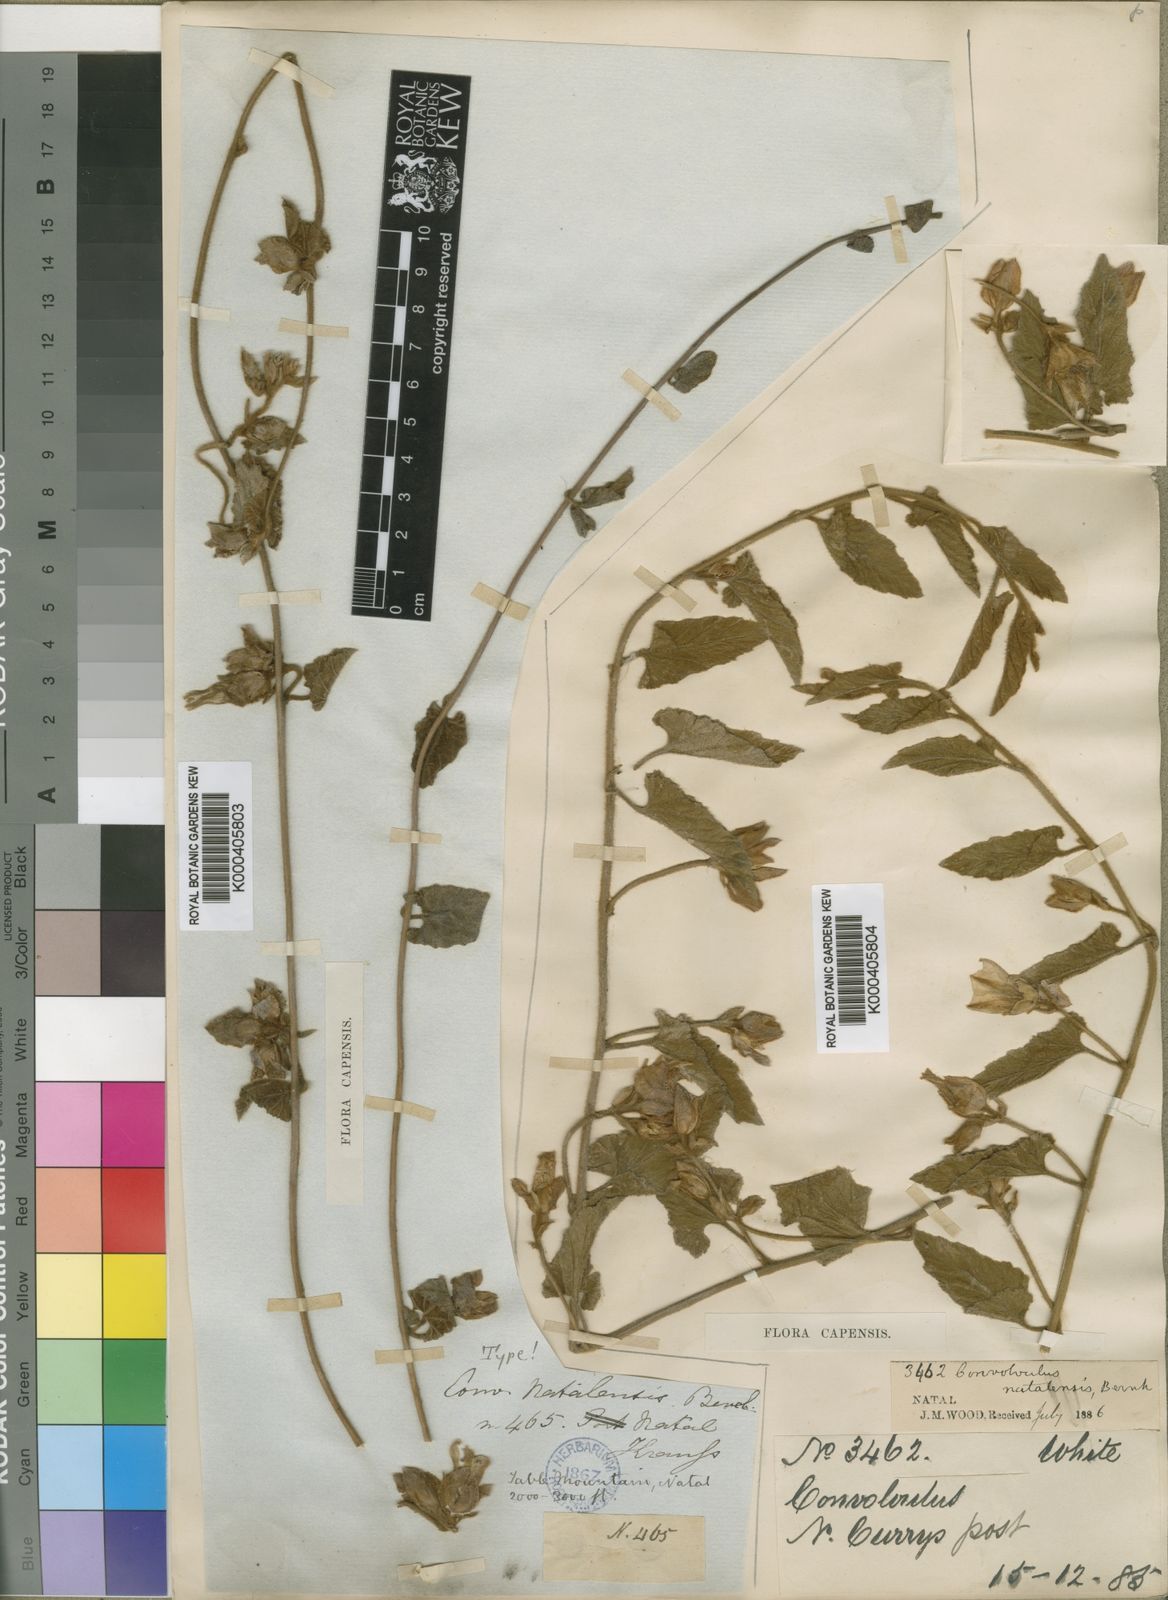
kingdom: Plantae
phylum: Tracheophyta
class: Magnoliopsida
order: Solanales
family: Convolvulaceae
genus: Convolvulus
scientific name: Convolvulus natalensis
